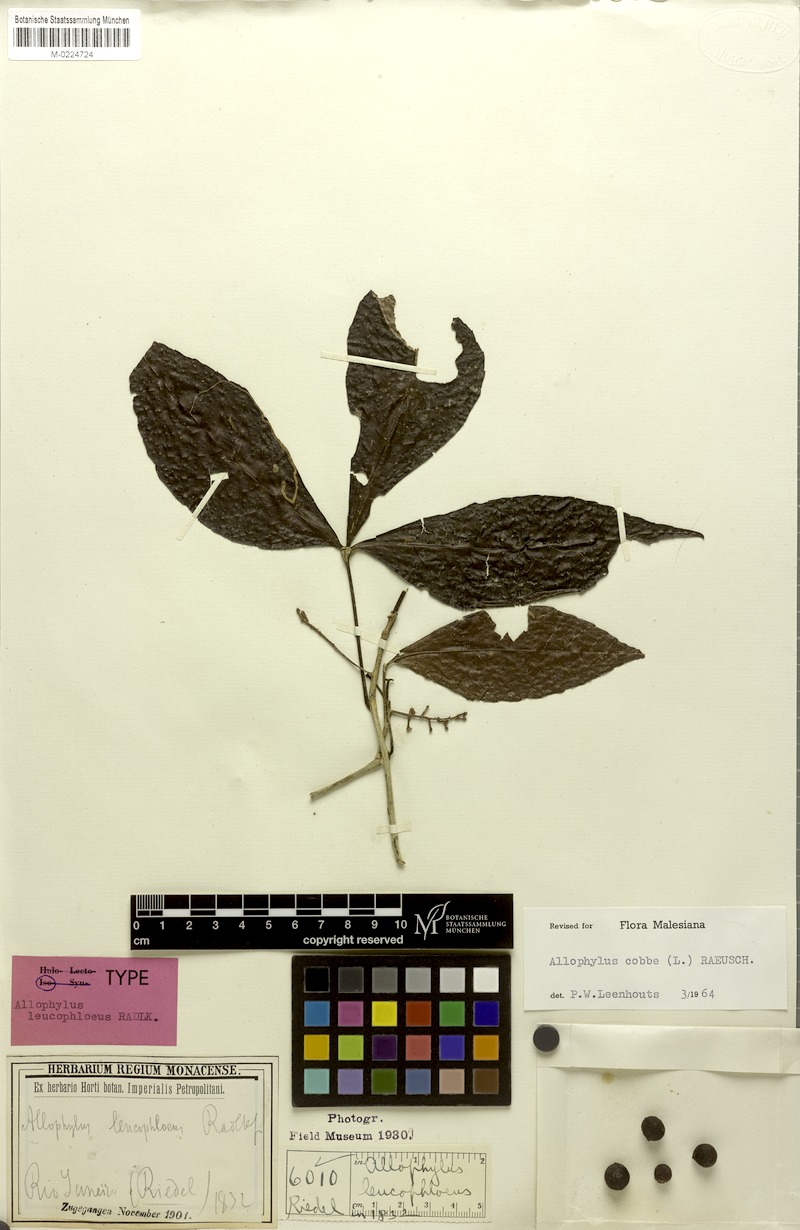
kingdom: Plantae
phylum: Tracheophyta
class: Magnoliopsida
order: Sapindales
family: Sapindaceae
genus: Allophylus
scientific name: Allophylus leucophloeus
